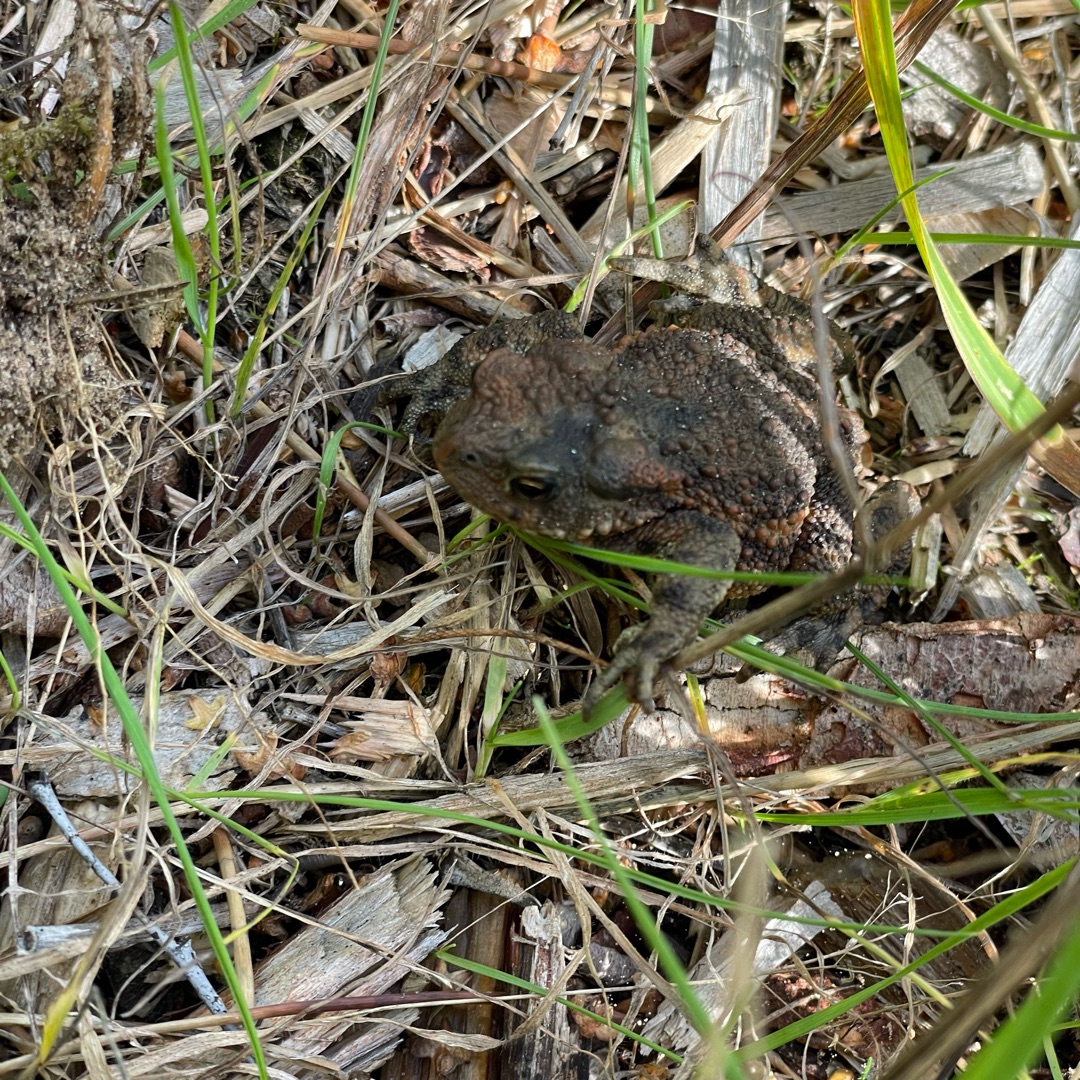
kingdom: Animalia
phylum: Chordata
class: Amphibia
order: Anura
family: Bufonidae
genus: Bufo
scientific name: Bufo bufo
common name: Skrubtudse
